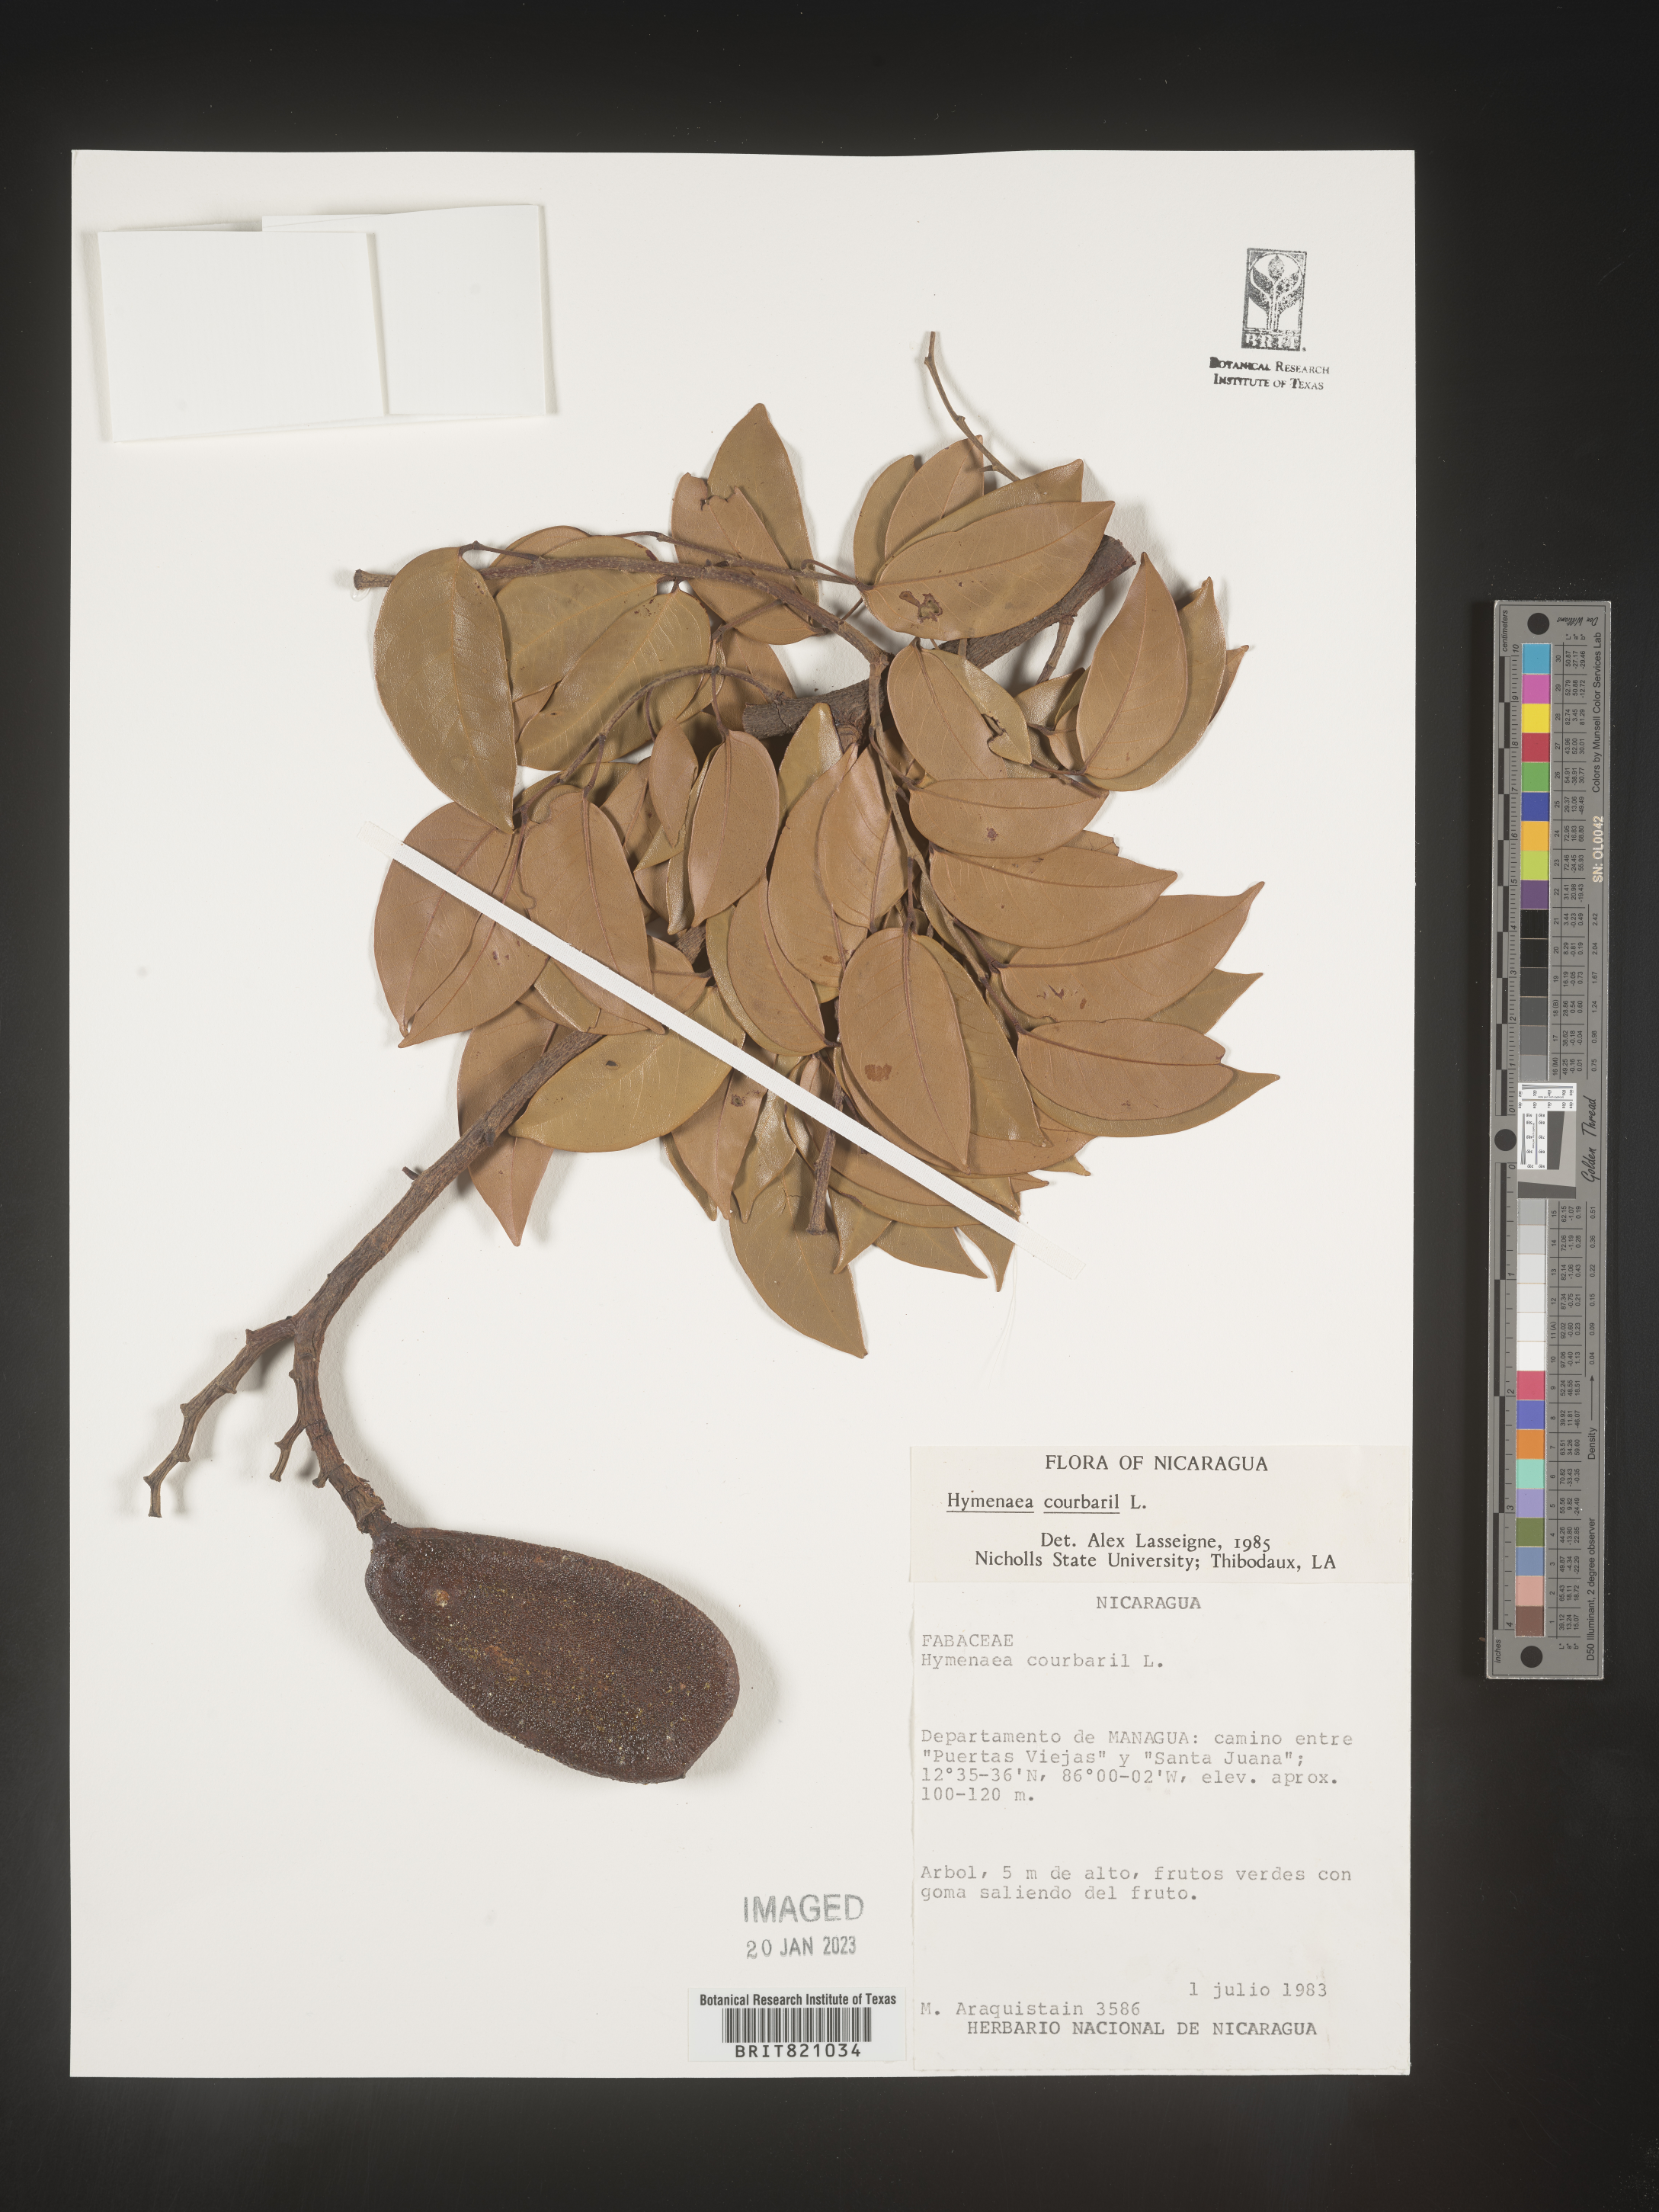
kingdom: Plantae
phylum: Tracheophyta
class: Magnoliopsida
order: Fabales
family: Fabaceae
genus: Hymenaea
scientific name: Hymenaea
